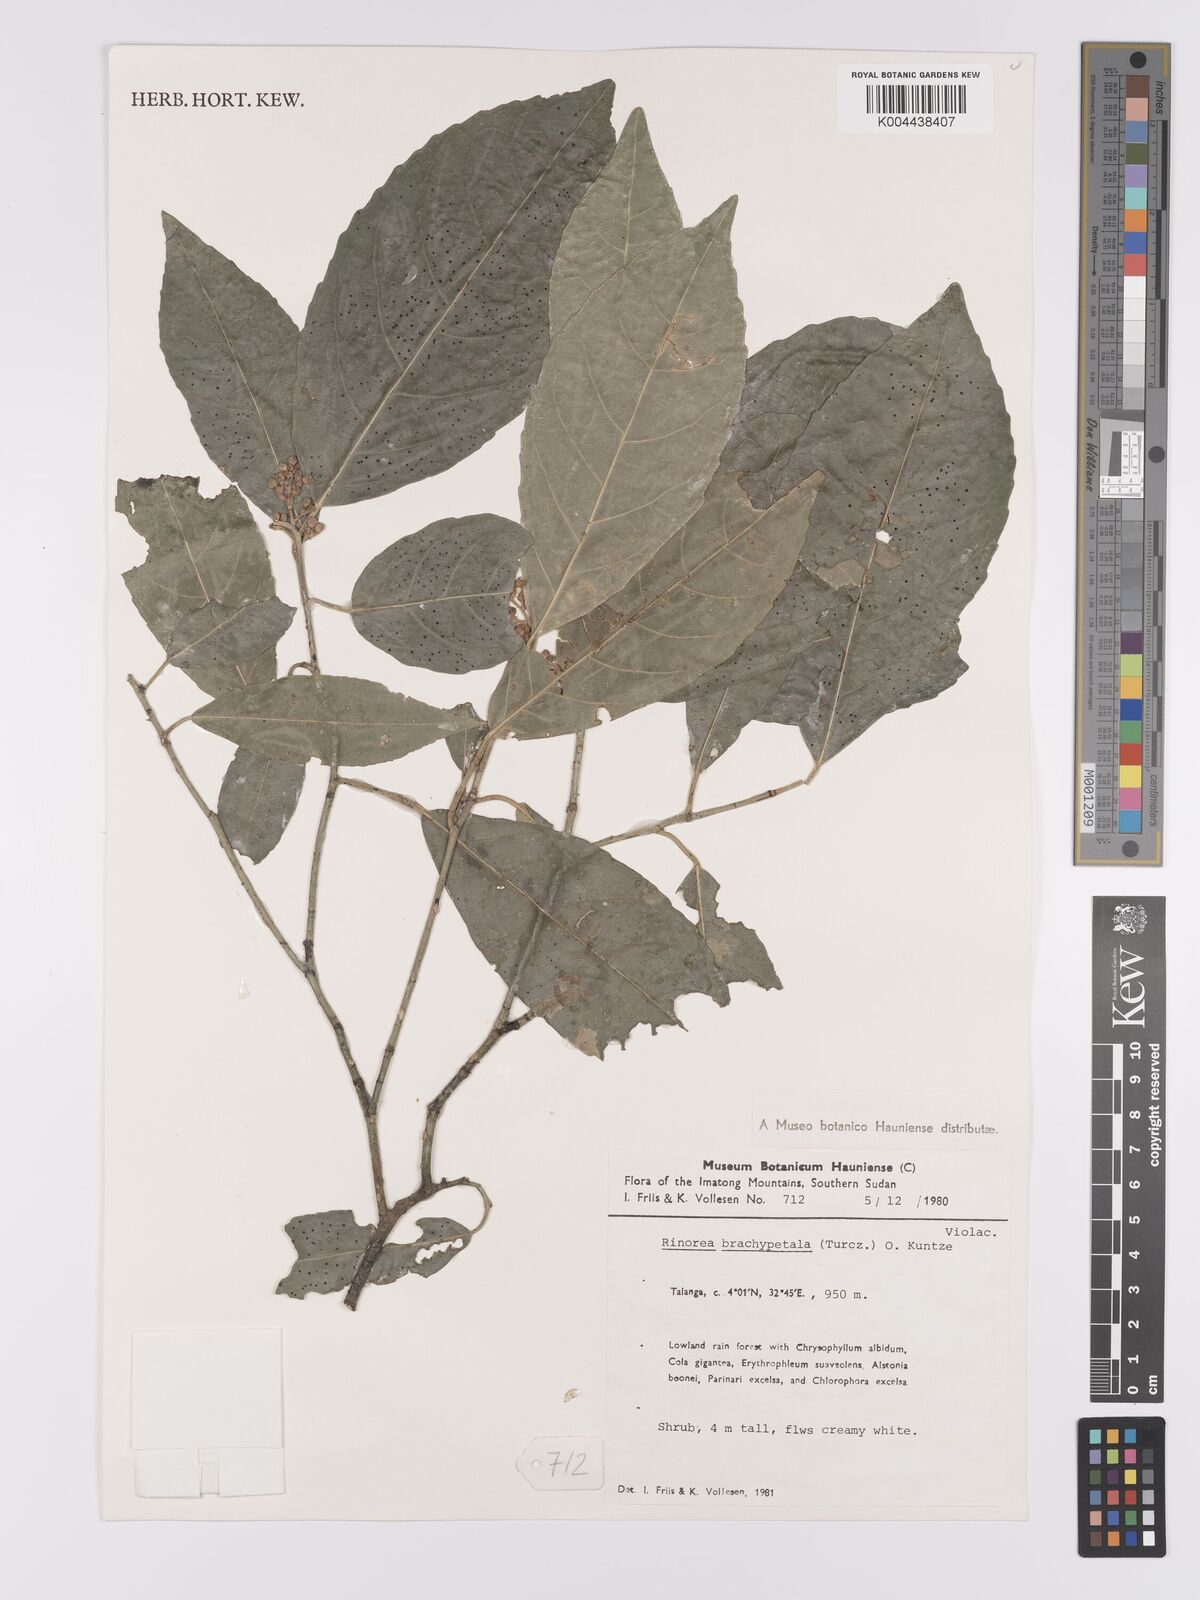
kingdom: Plantae
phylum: Tracheophyta
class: Magnoliopsida
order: Malpighiales
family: Violaceae
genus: Rinorea
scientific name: Rinorea brachypetala
